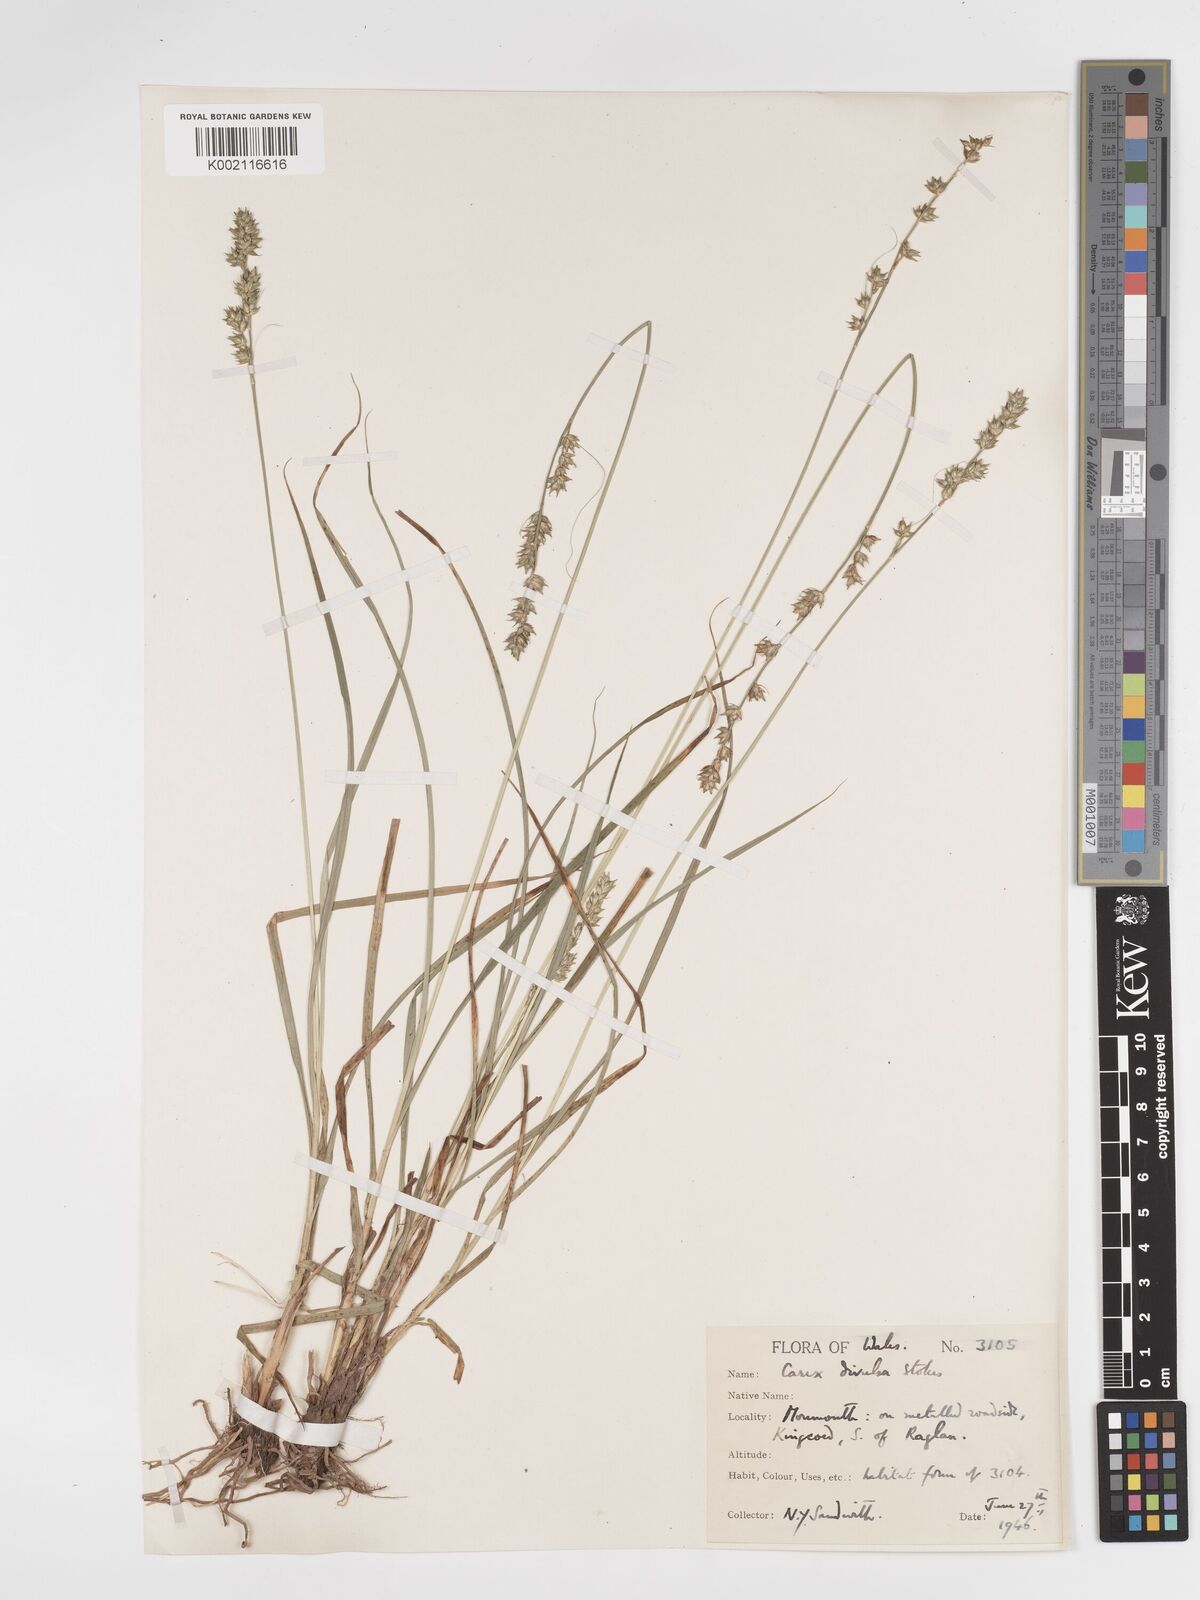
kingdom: Plantae
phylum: Tracheophyta
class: Liliopsida
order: Poales
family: Cyperaceae
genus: Carex
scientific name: Carex divulsa
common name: Grassland sedge
